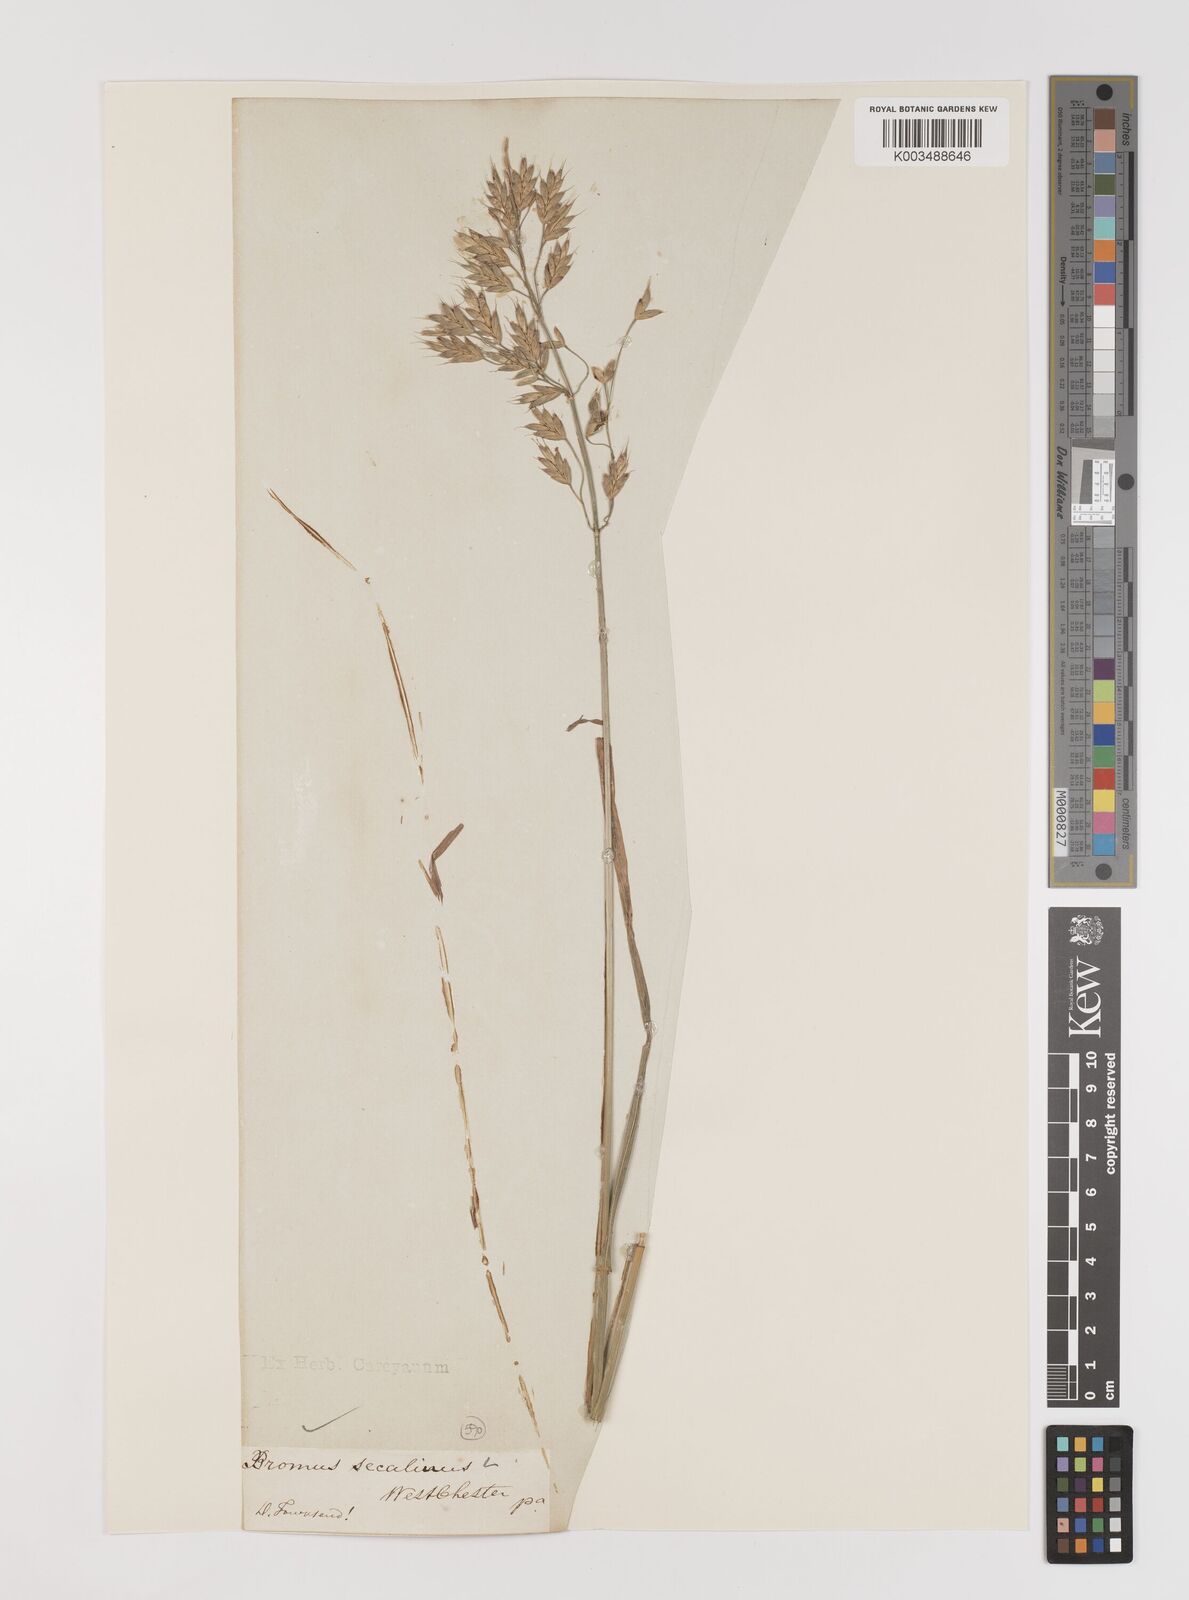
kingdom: Plantae
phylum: Tracheophyta
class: Liliopsida
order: Poales
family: Poaceae
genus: Bromus
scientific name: Bromus secalinus
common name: Rye brome
